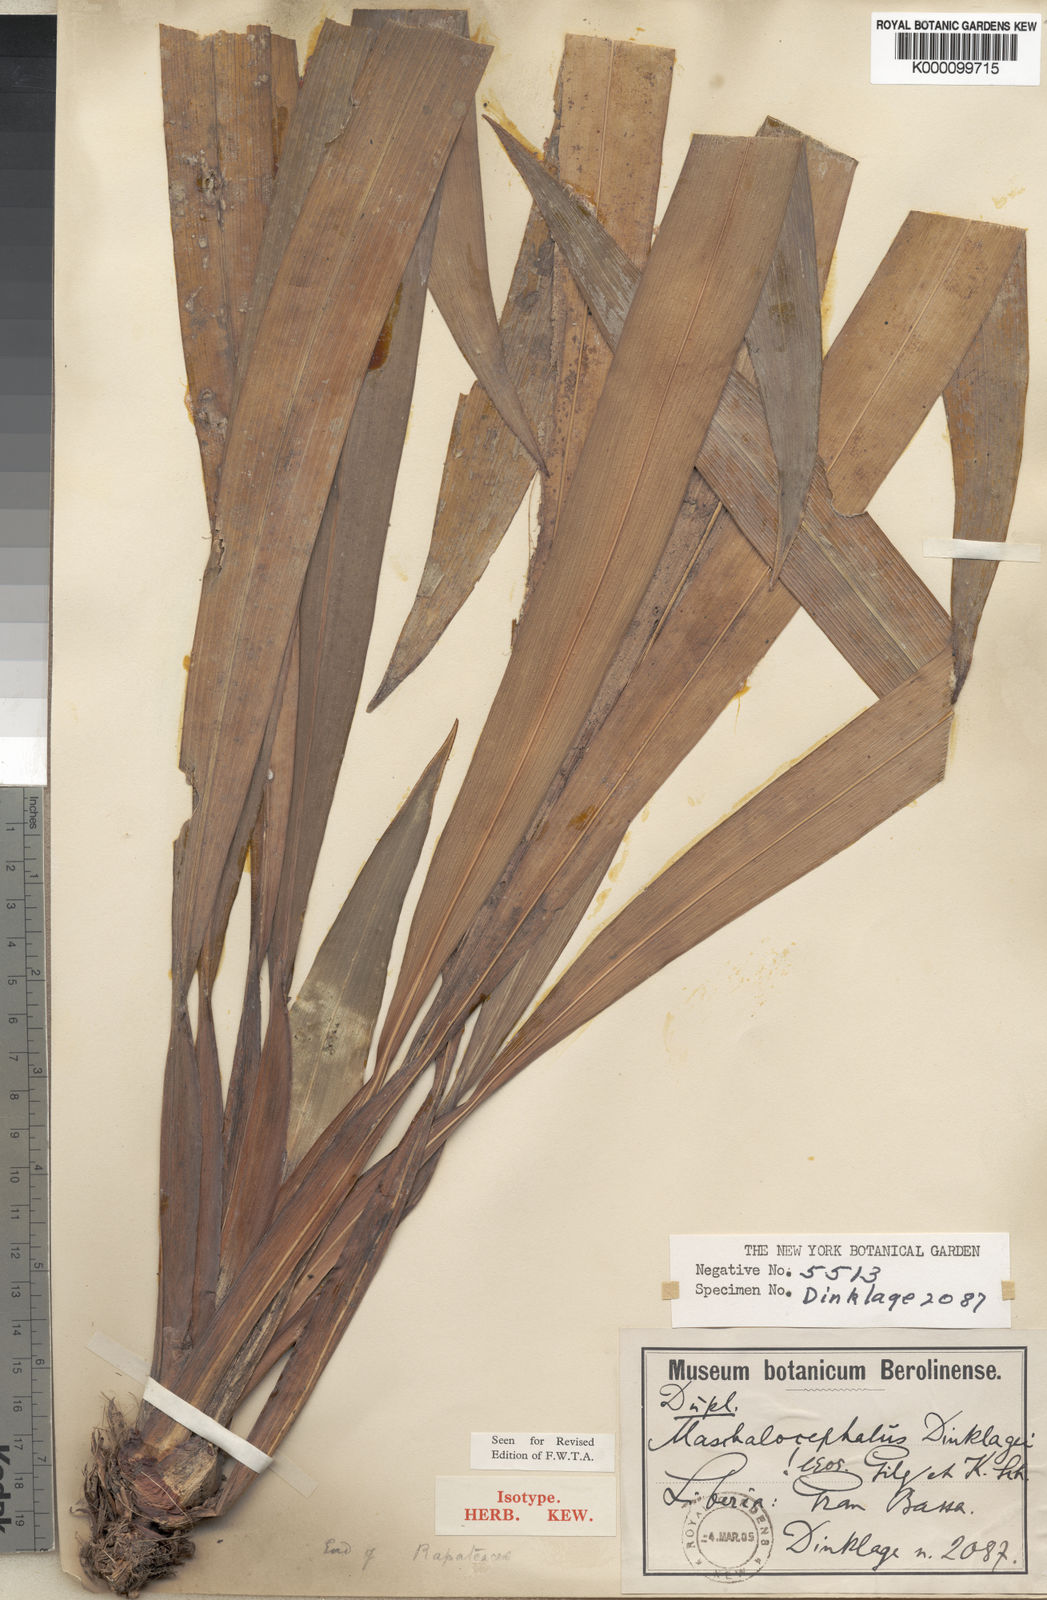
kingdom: Plantae
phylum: Tracheophyta
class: Liliopsida
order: Poales
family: Rapateaceae
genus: Maschalocephalus
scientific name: Maschalocephalus dinklagei
